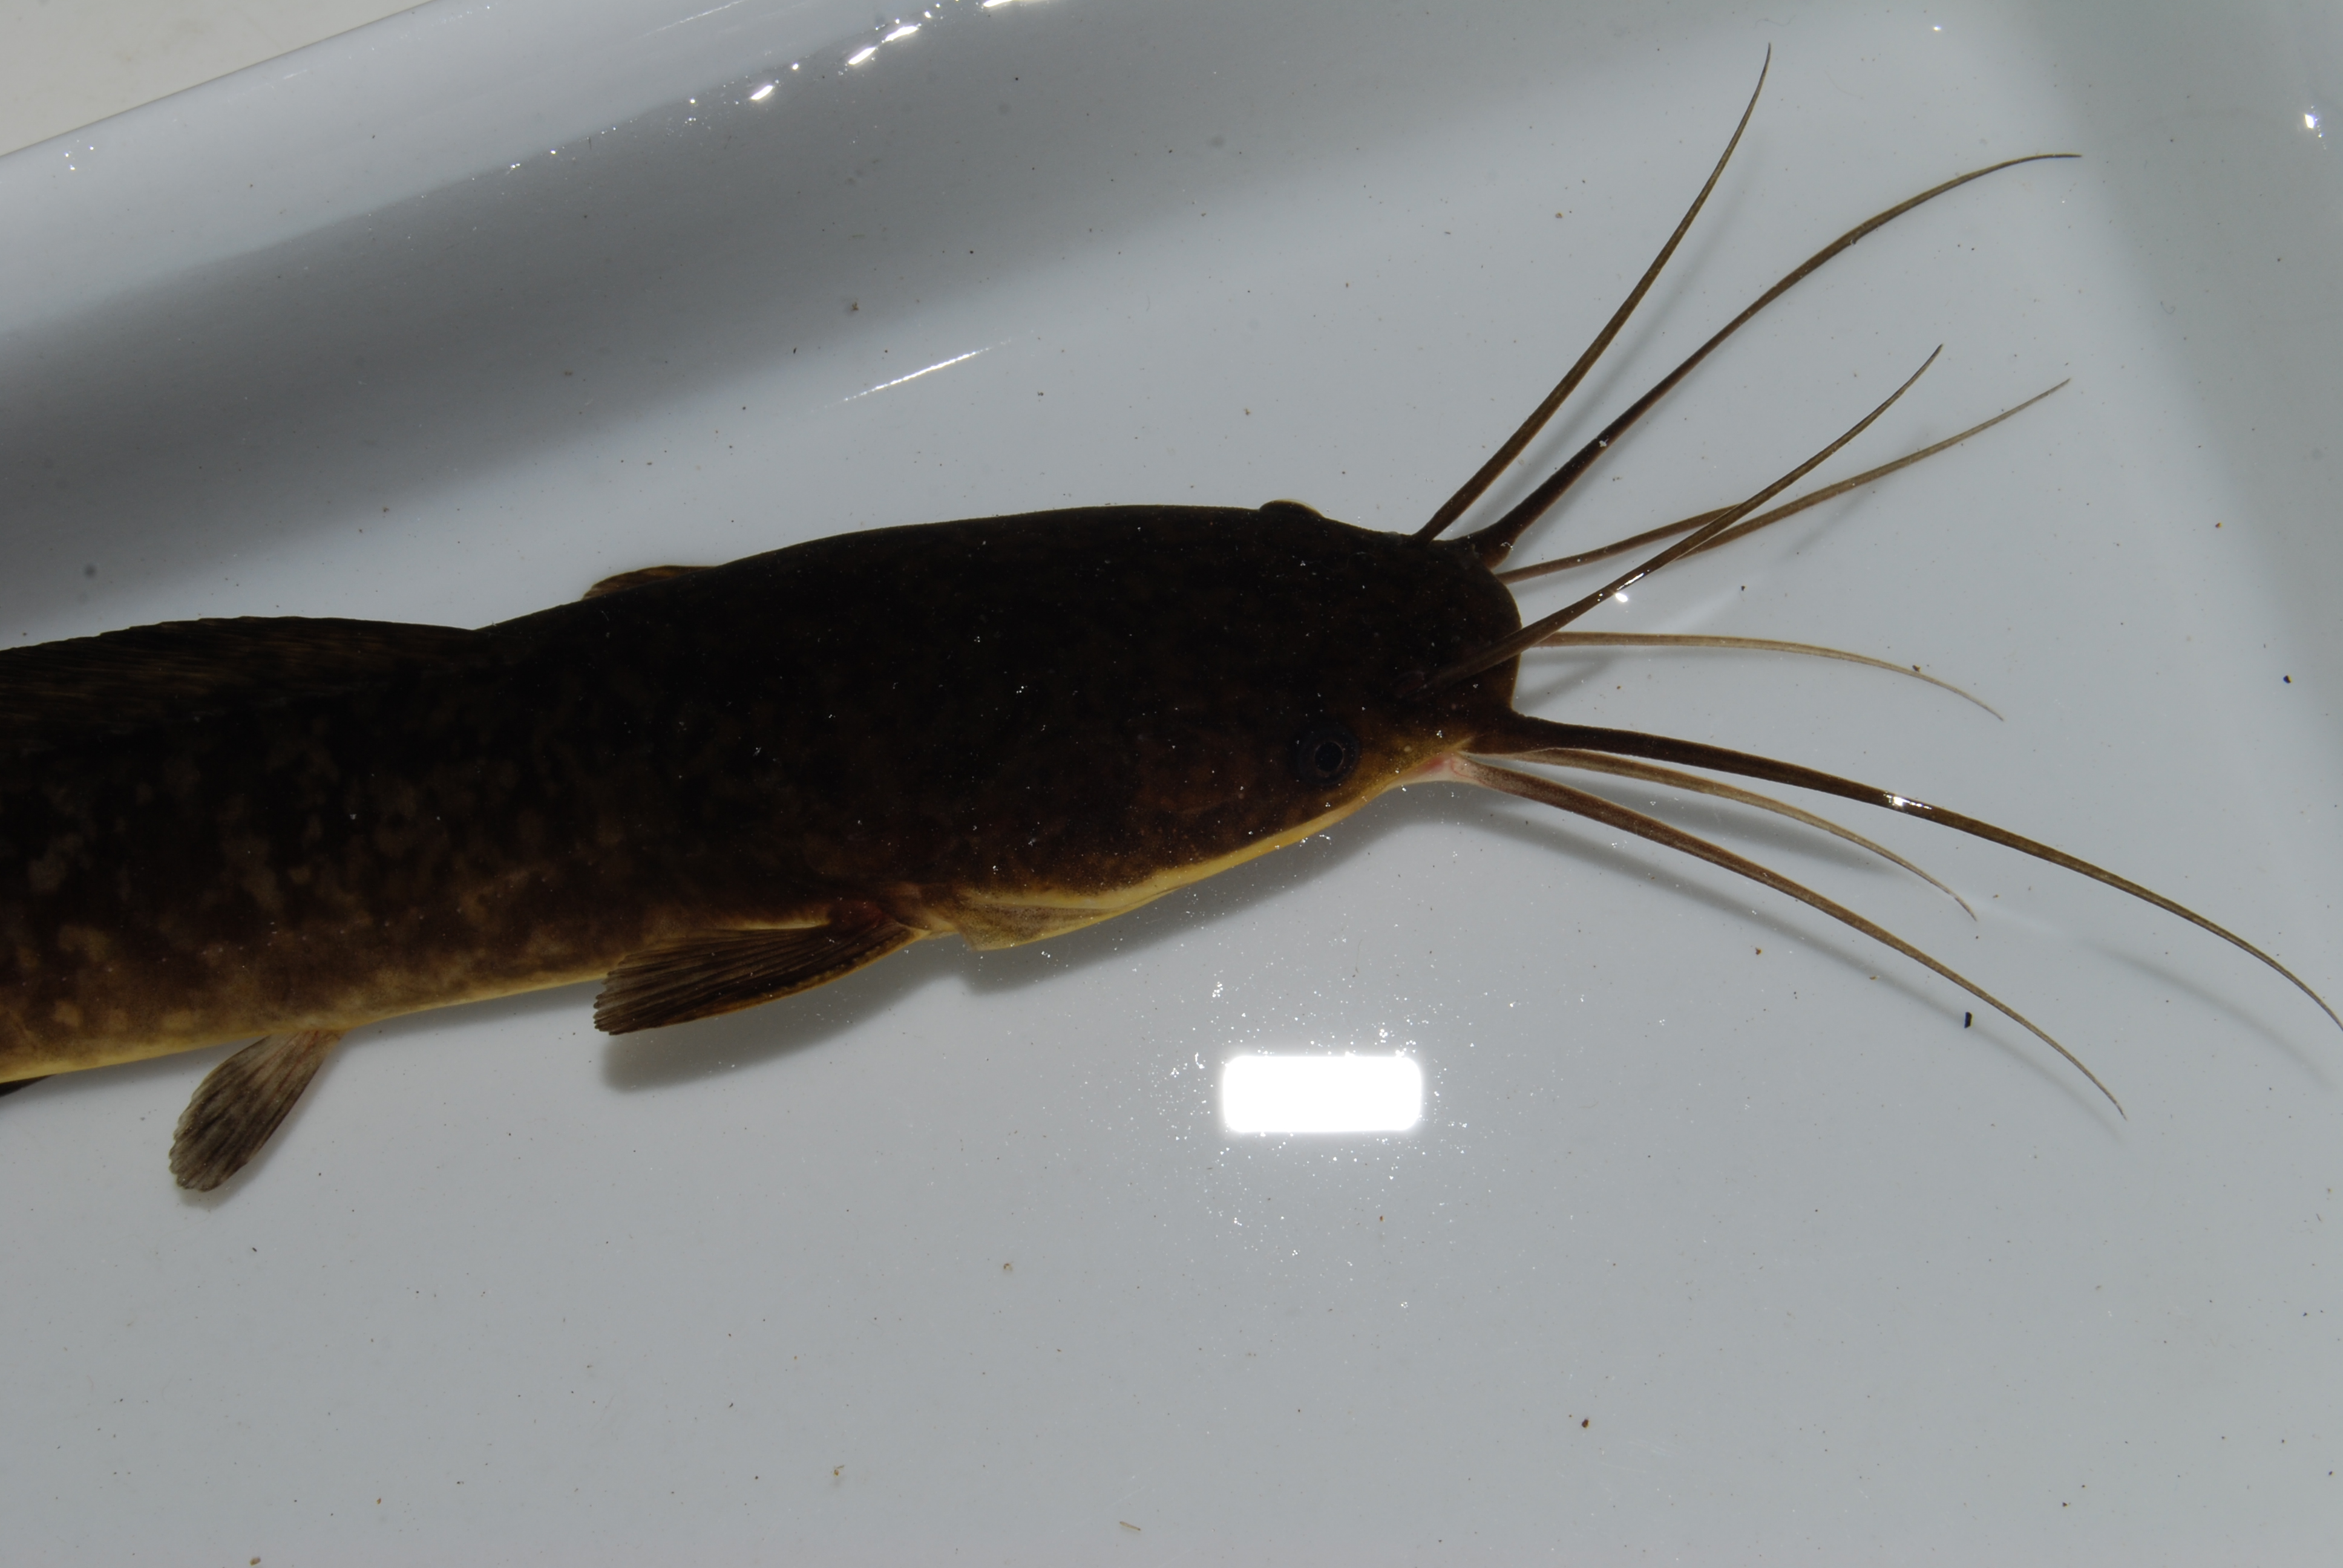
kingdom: Animalia
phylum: Chordata
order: Siluriformes
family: Clariidae
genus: Clarias
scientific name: Clarias ngamensis
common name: Blunt-toothed african catfish
